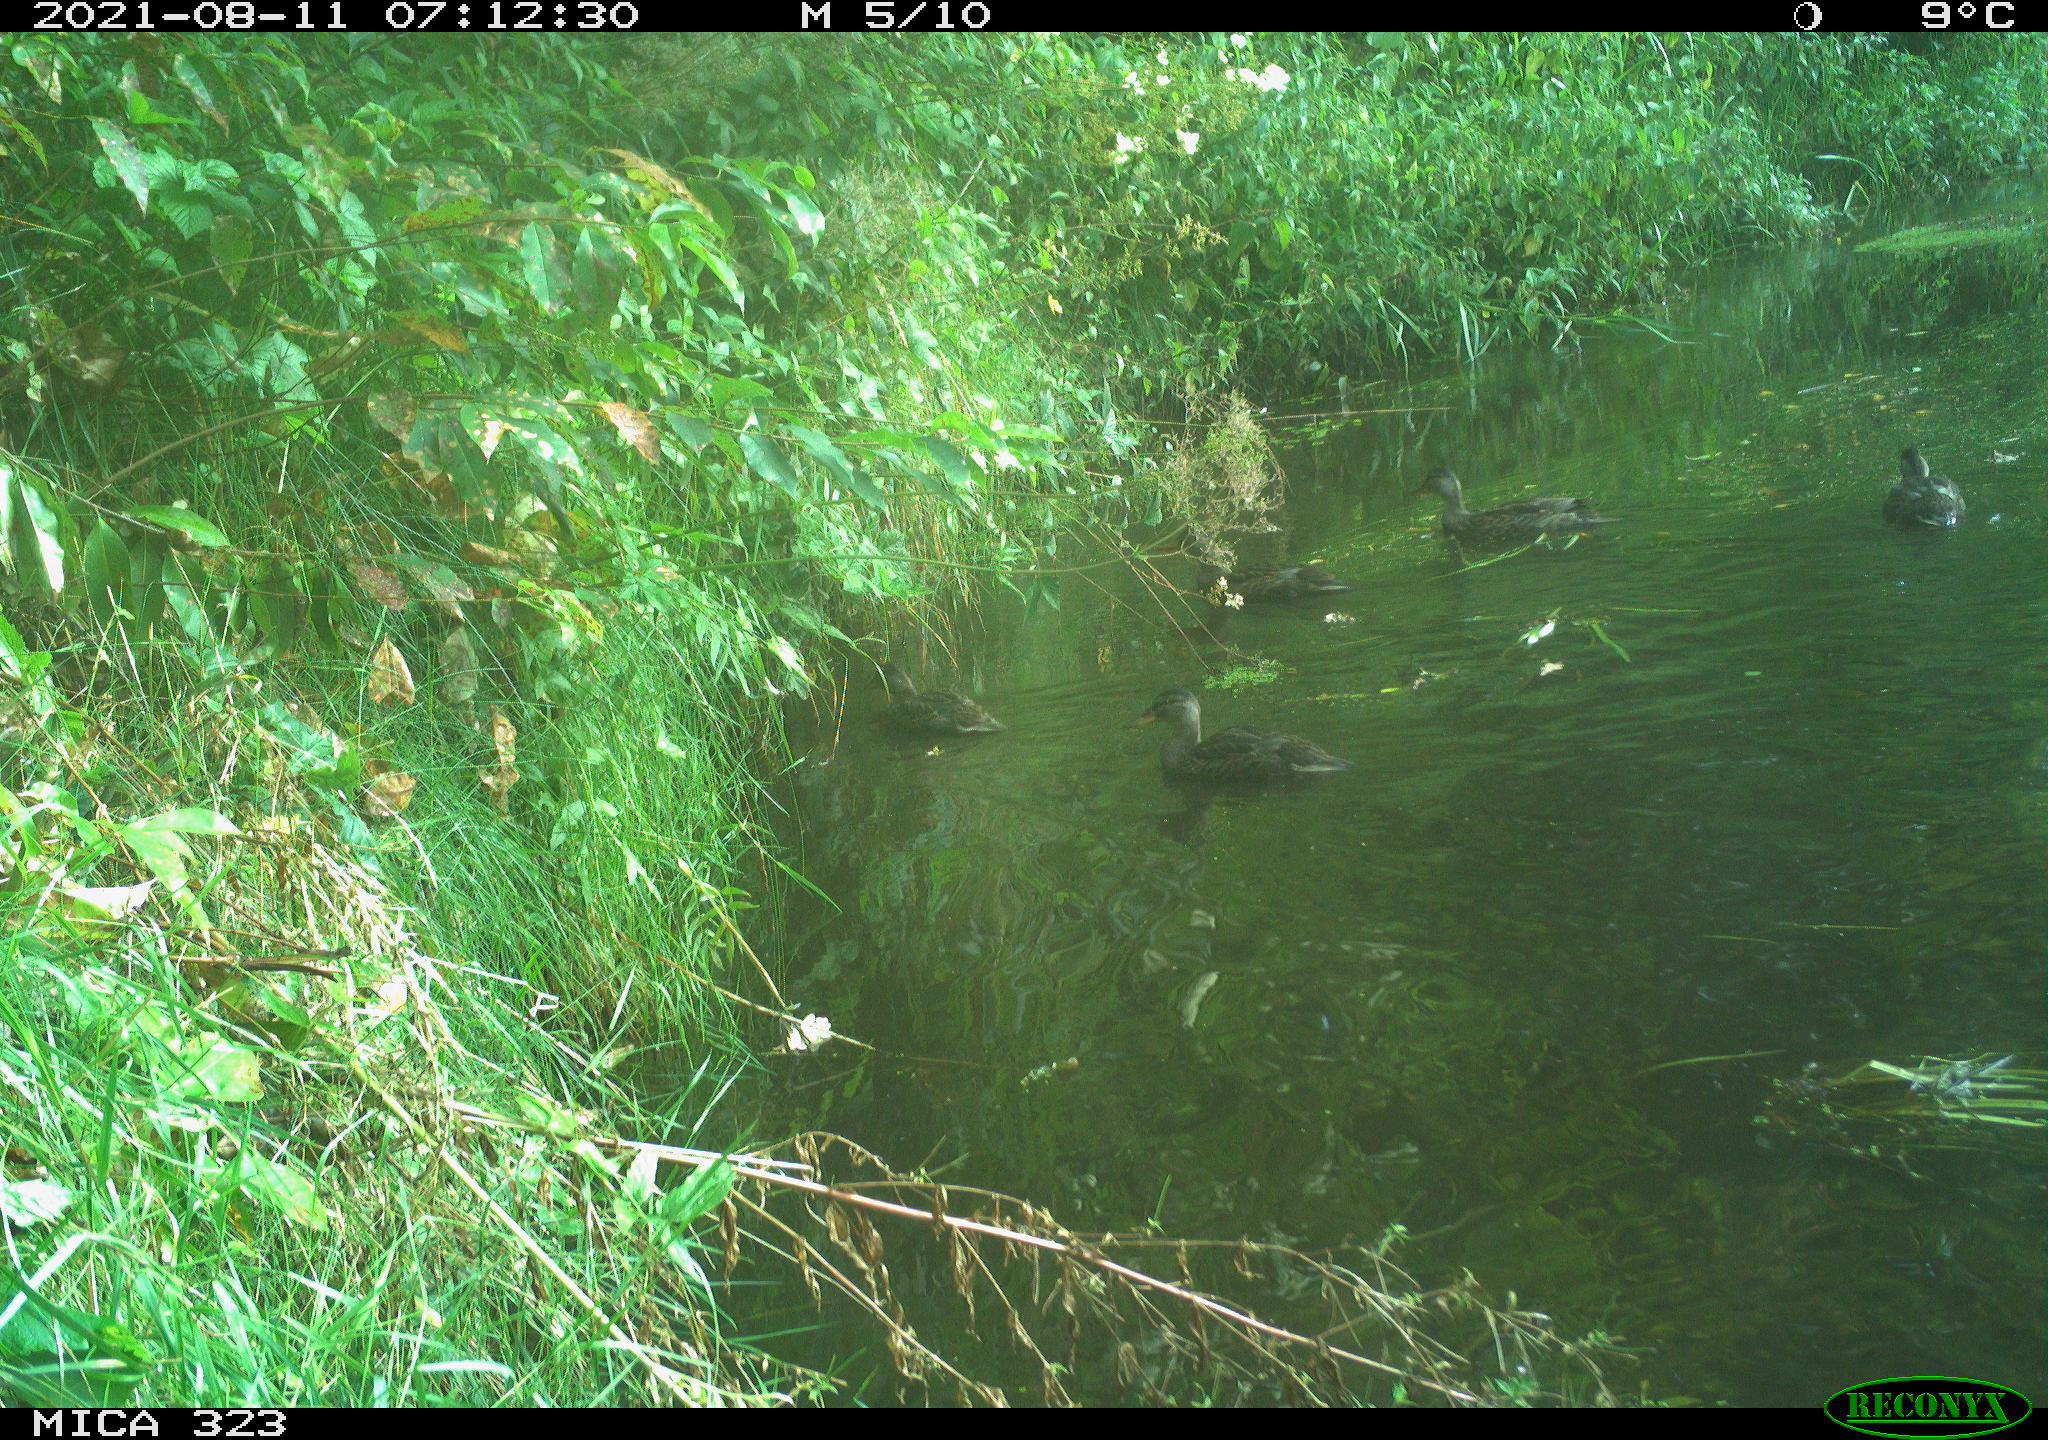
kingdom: Animalia
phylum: Chordata
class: Aves
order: Anseriformes
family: Anatidae
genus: Anas
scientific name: Anas platyrhynchos
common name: Mallard
